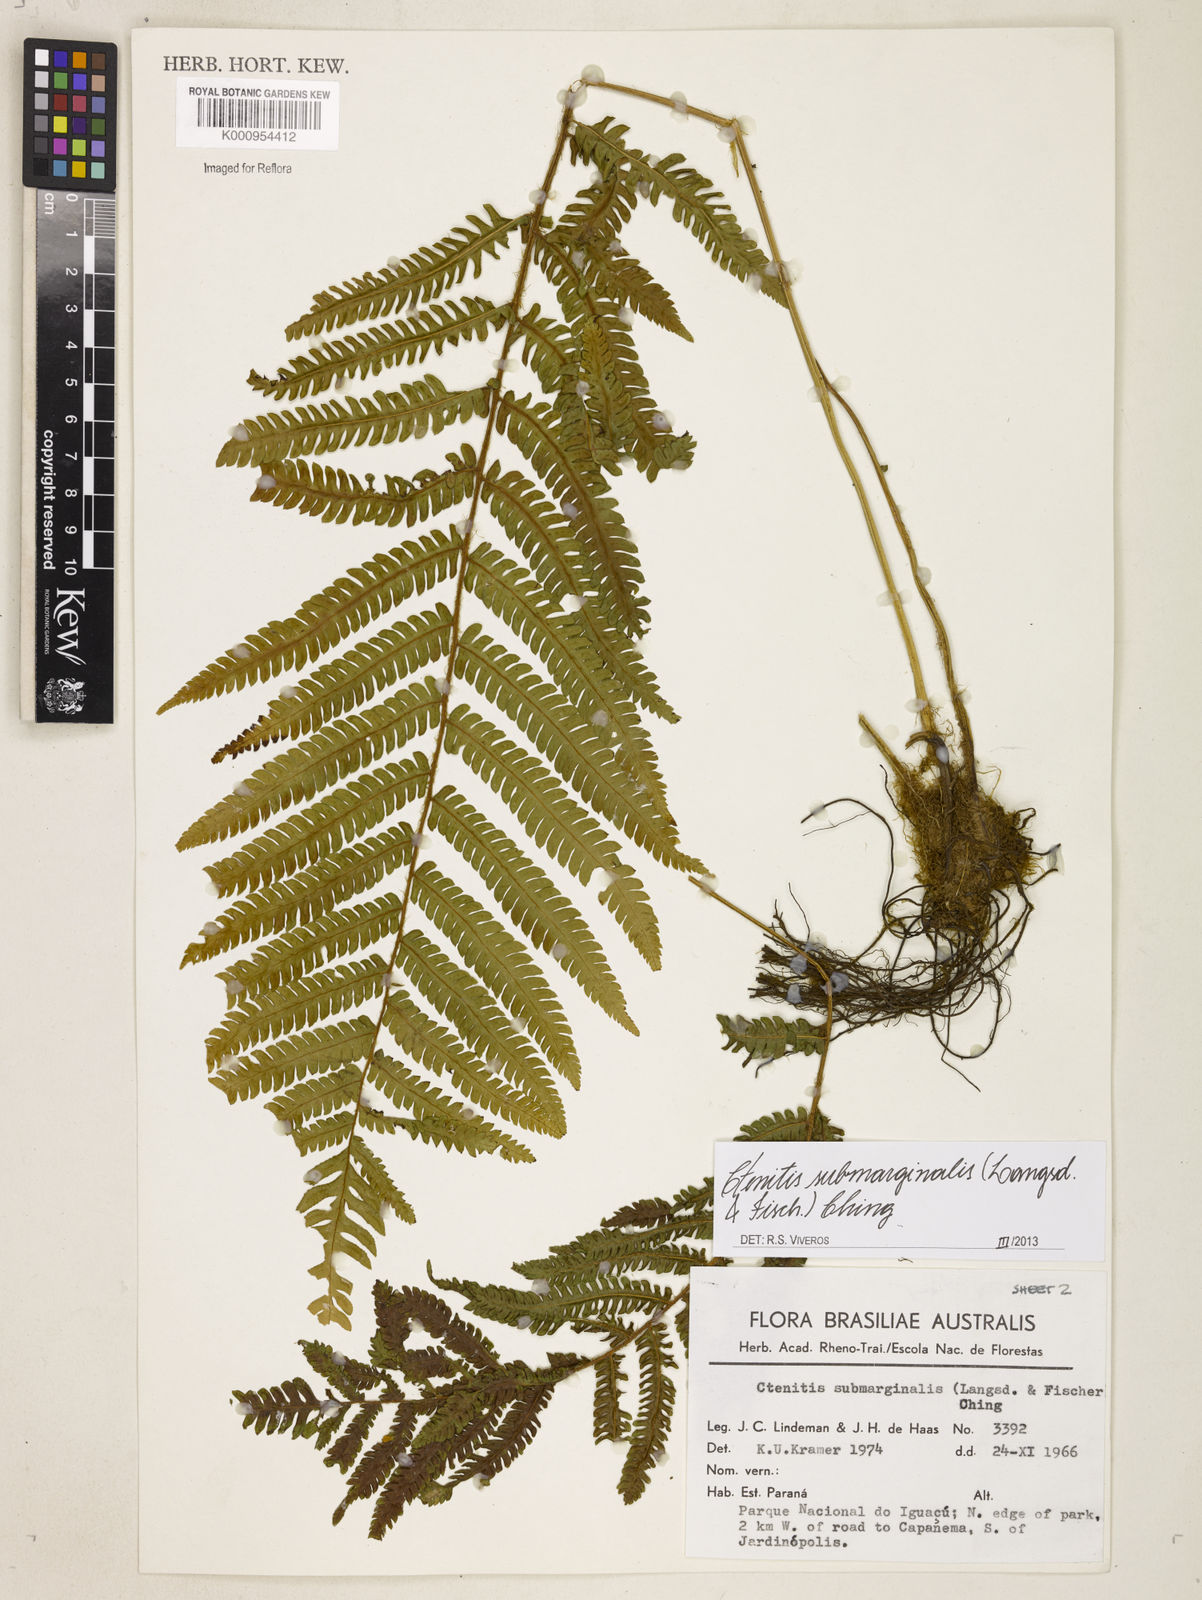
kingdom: Plantae
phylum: Tracheophyta
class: Polypodiopsida
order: Polypodiales
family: Dryopteridaceae
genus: Ctenitis
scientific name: Ctenitis submarginalis
